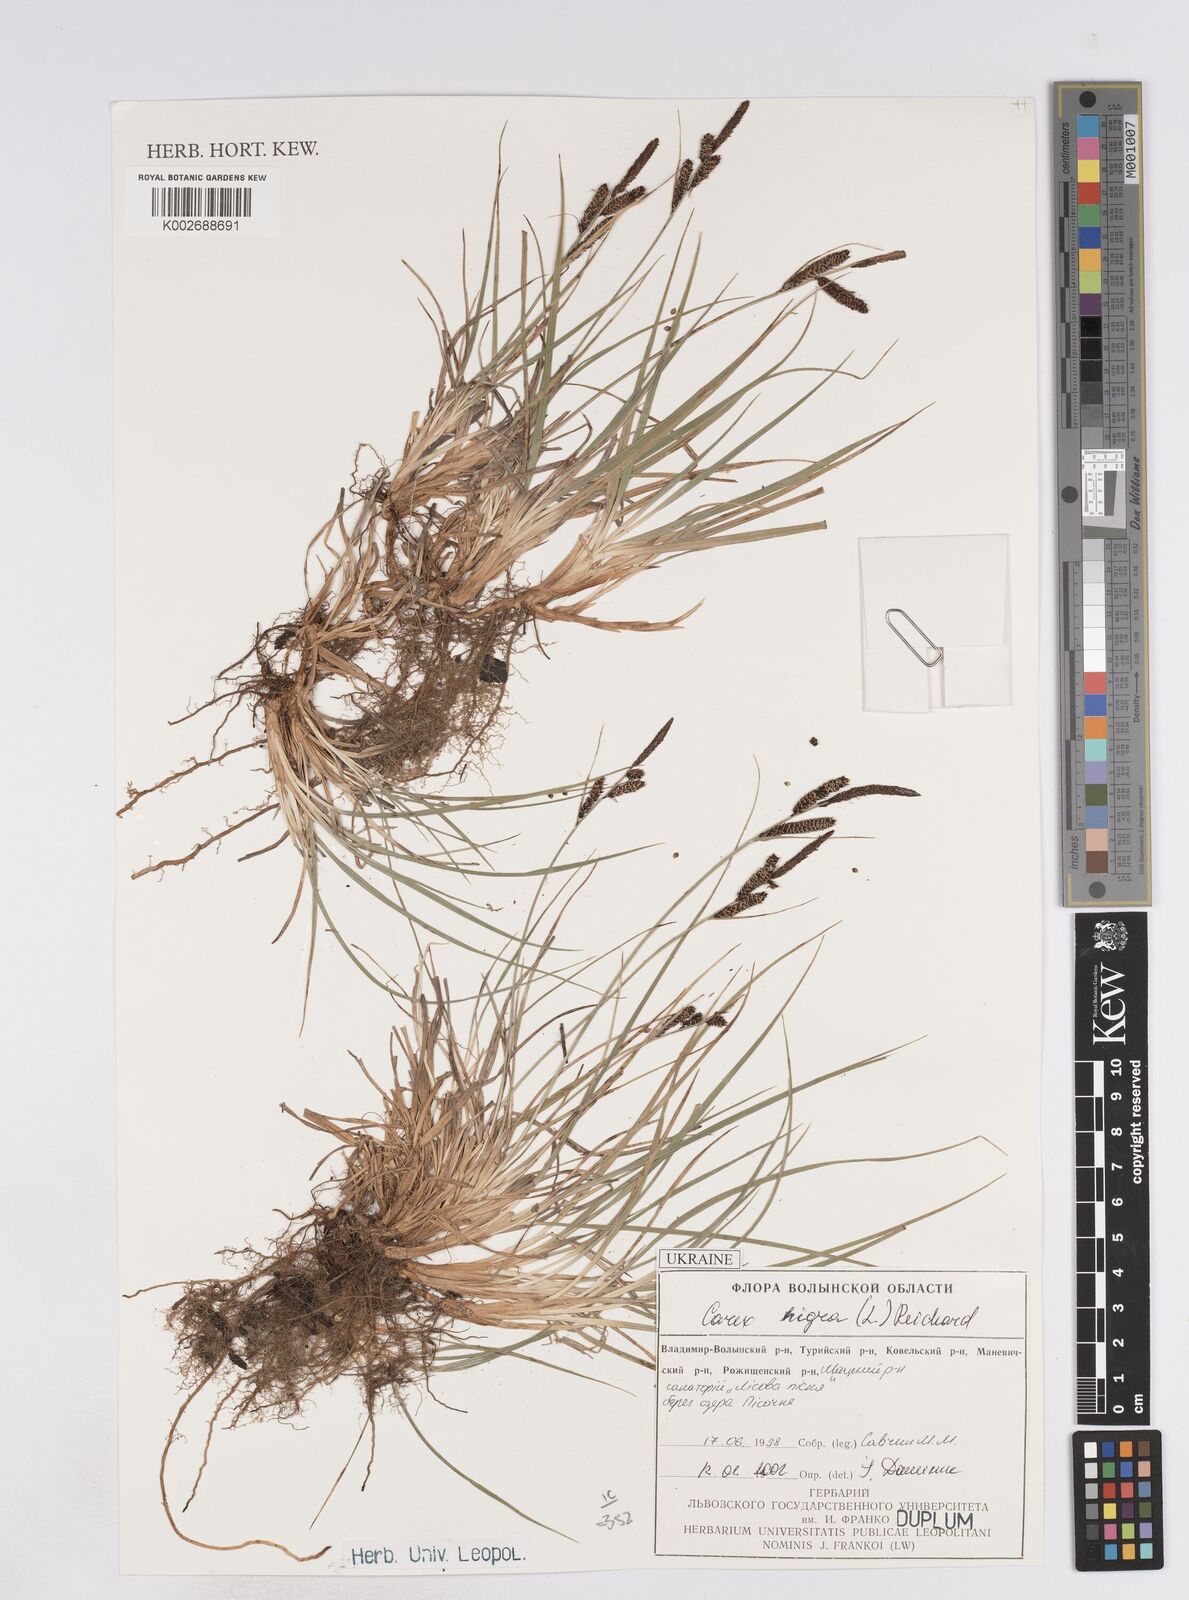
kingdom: Plantae
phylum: Tracheophyta
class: Liliopsida
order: Poales
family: Cyperaceae
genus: Carex
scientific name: Carex parviflora
